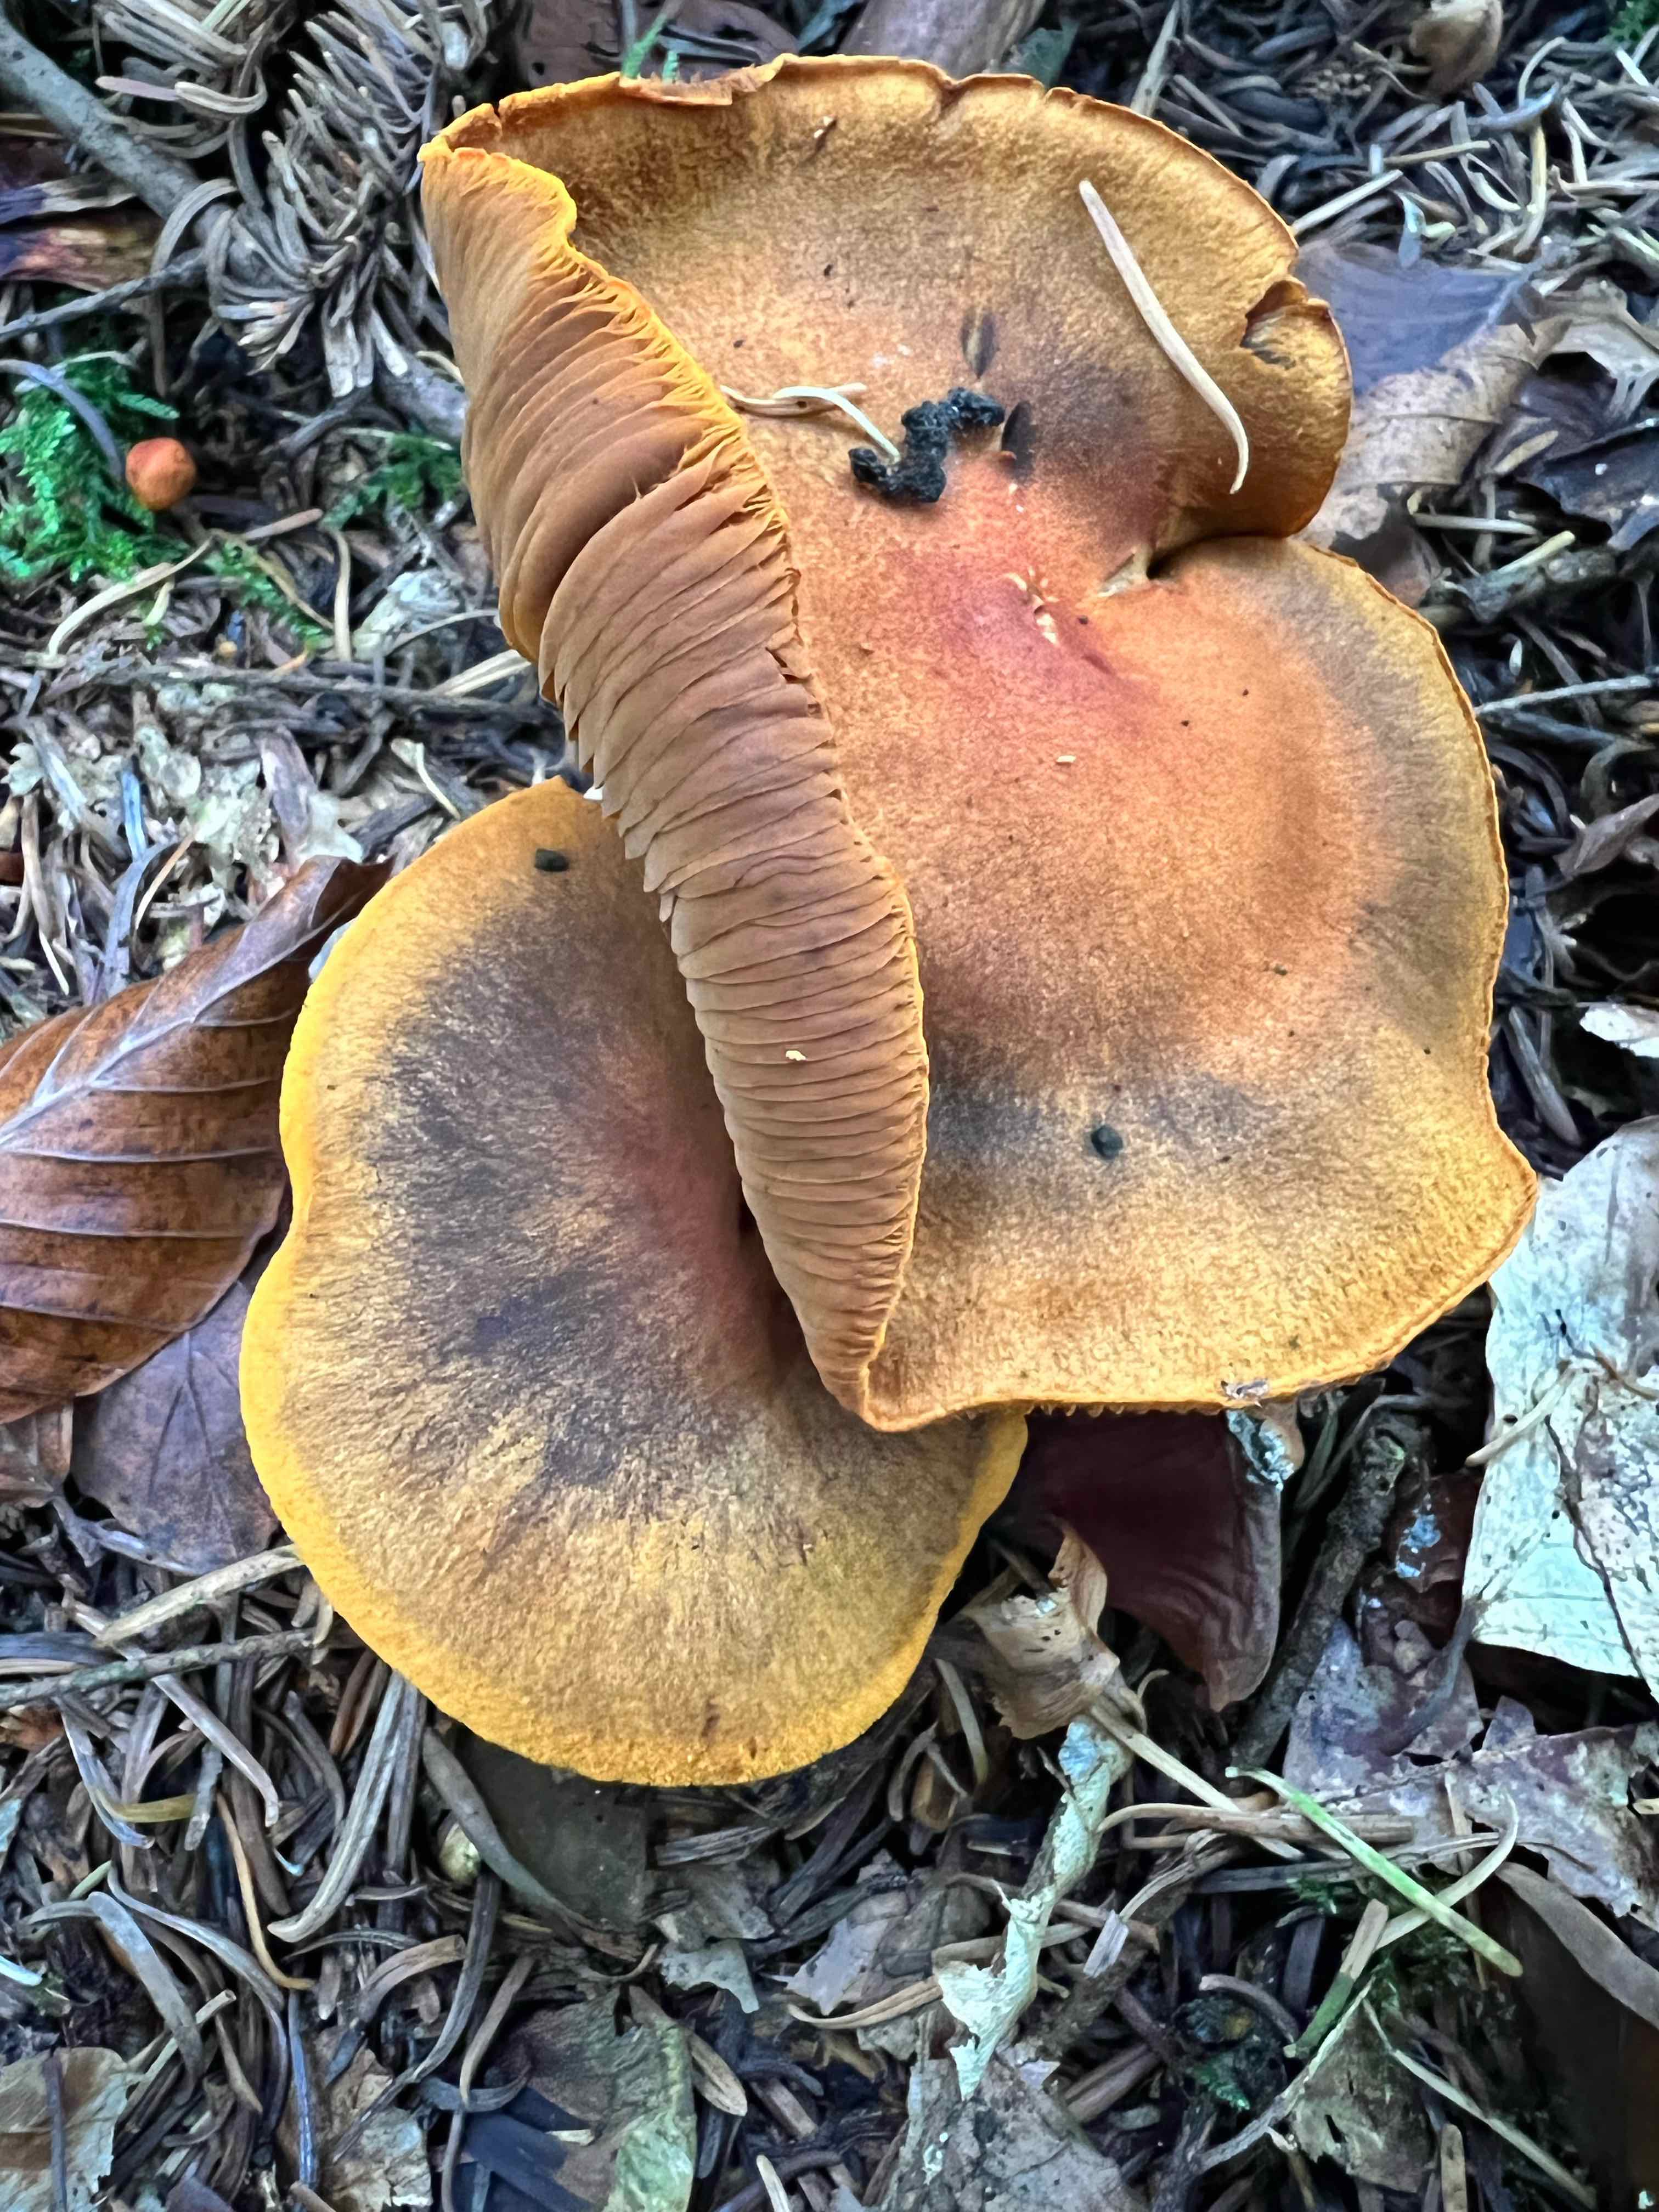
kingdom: Fungi
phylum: Basidiomycota
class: Agaricomycetes
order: Agaricales
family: Cortinariaceae
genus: Cortinarius
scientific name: Cortinarius malicorius
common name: grønkødet slørhat
